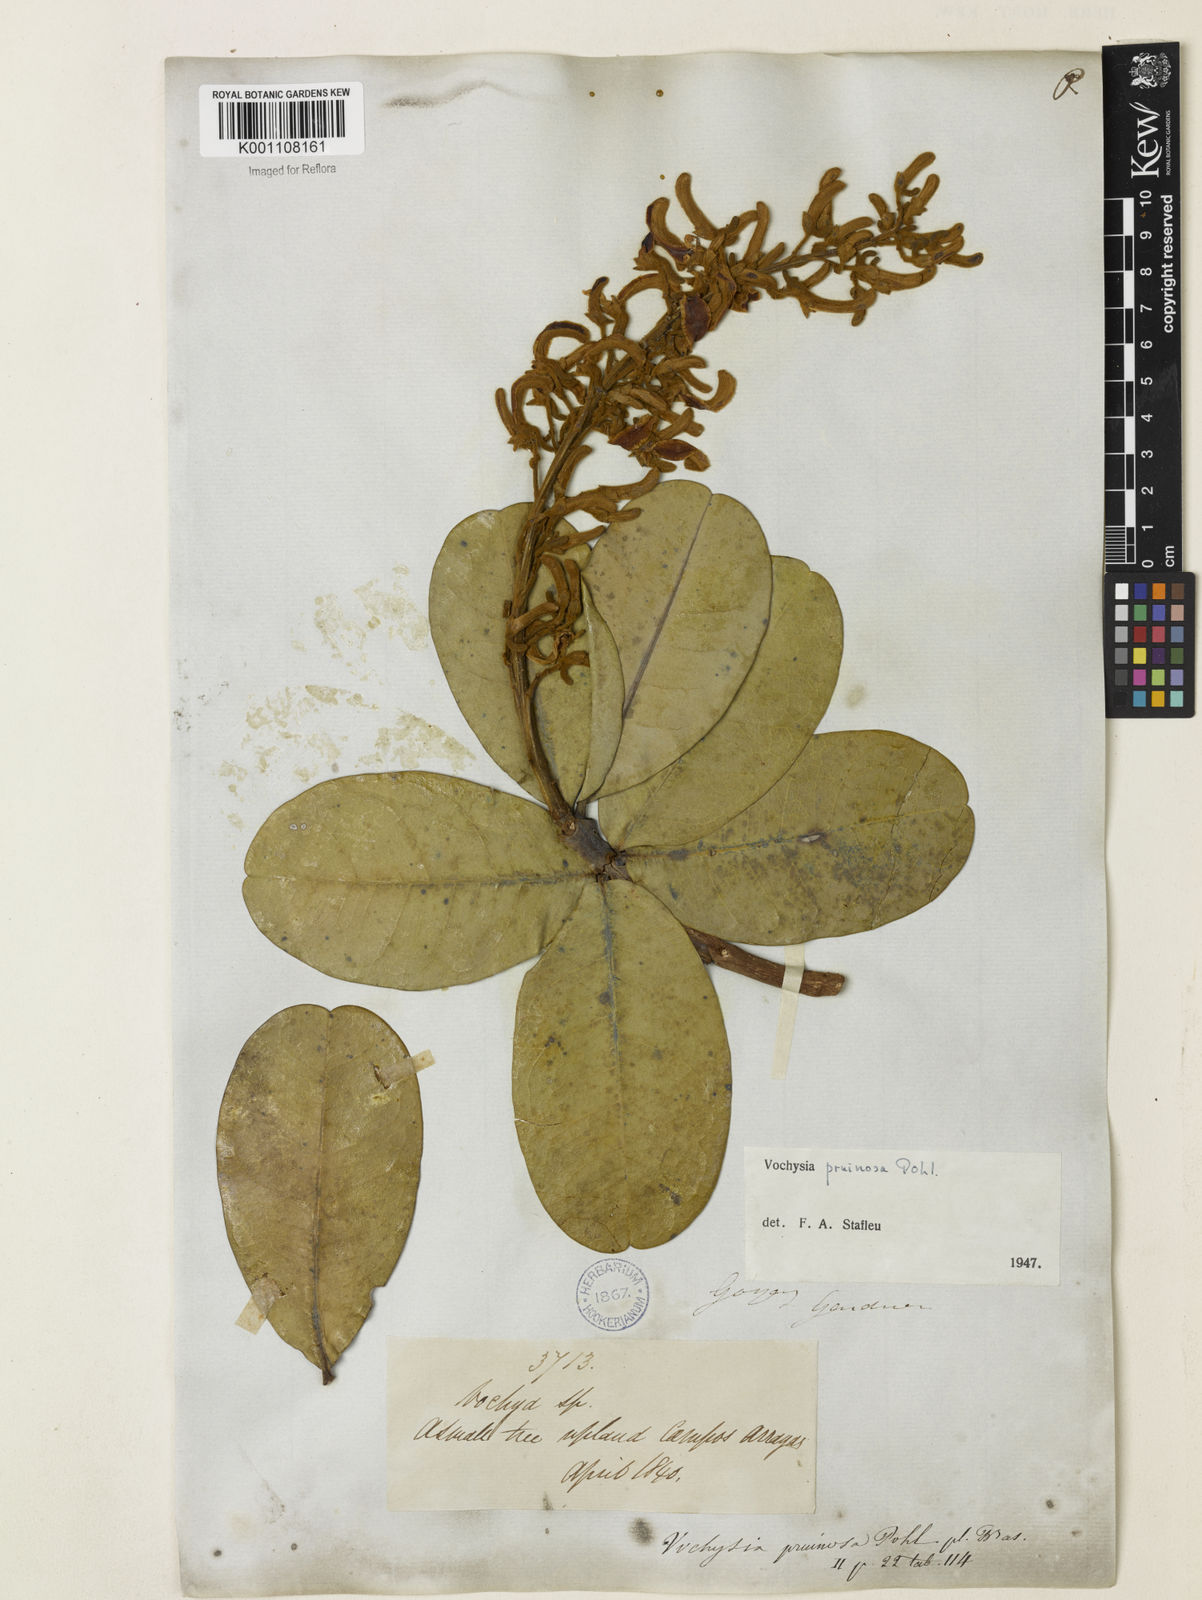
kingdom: Plantae
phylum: Tracheophyta
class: Magnoliopsida
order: Myrtales
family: Vochysiaceae
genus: Vochysia
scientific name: Vochysia pruinosa
